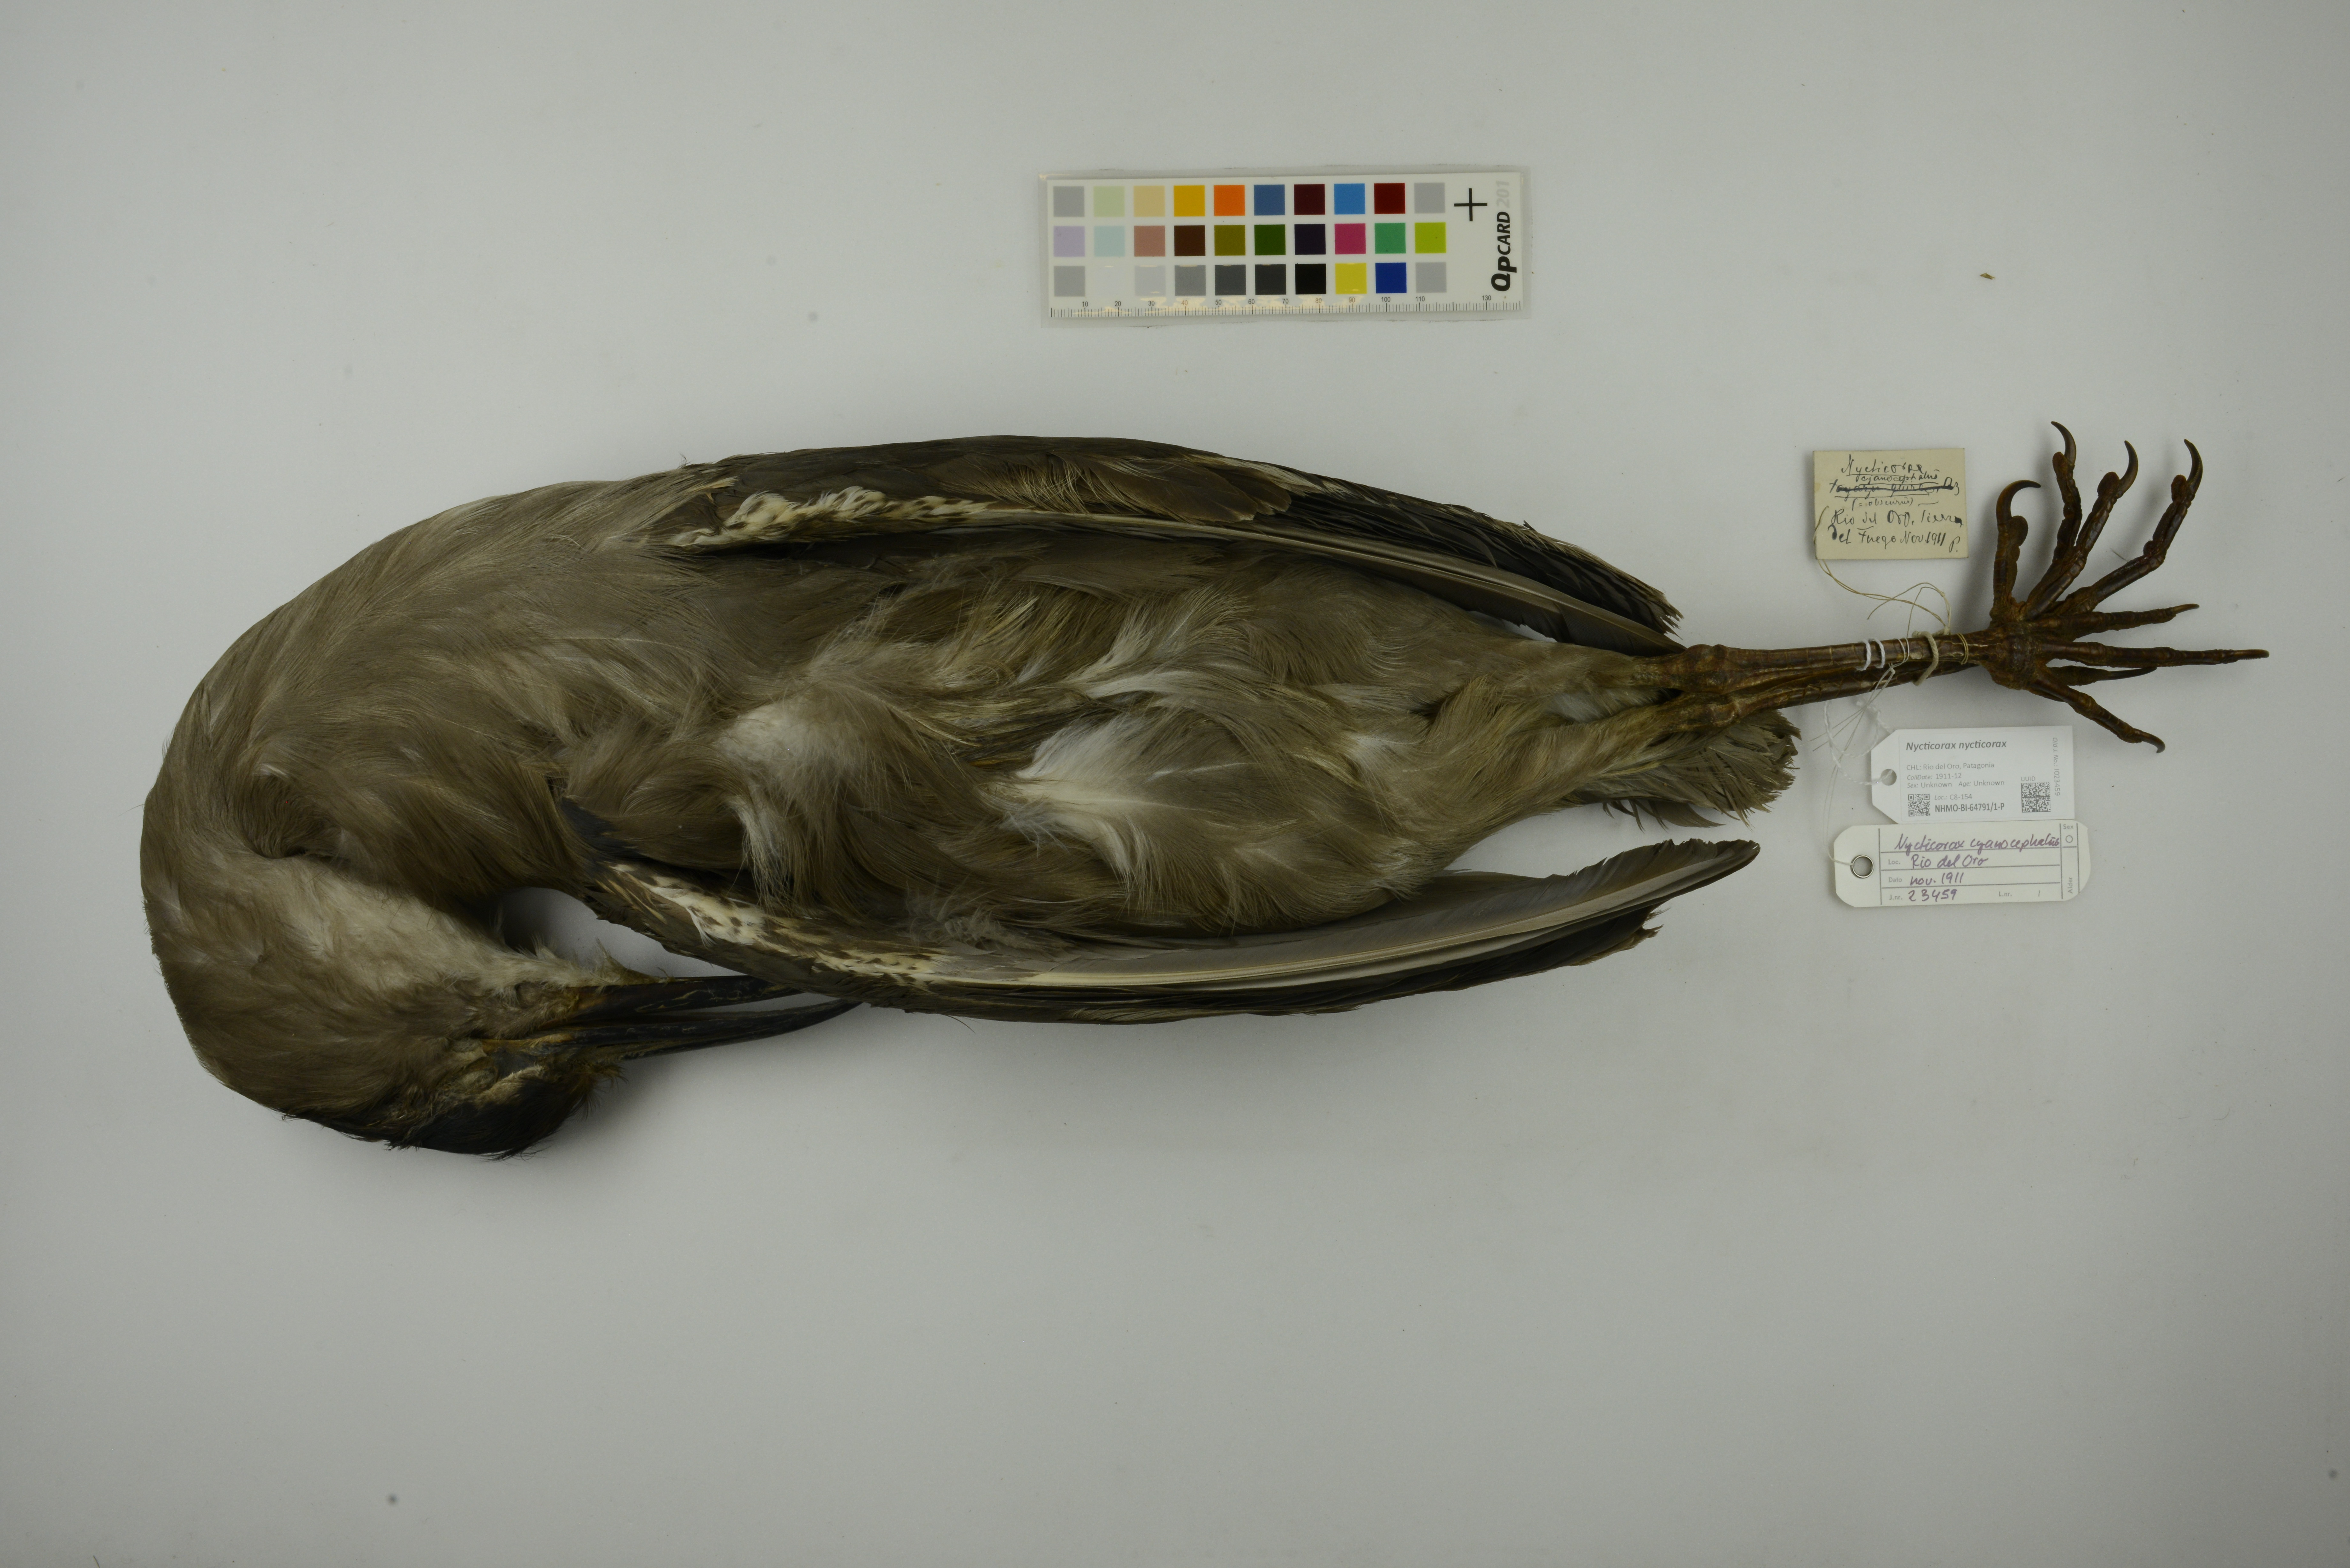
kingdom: Animalia
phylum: Chordata
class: Aves
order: Pelecaniformes
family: Ardeidae
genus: Nycticorax
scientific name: Nycticorax nycticorax
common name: Black-crowned night heron
